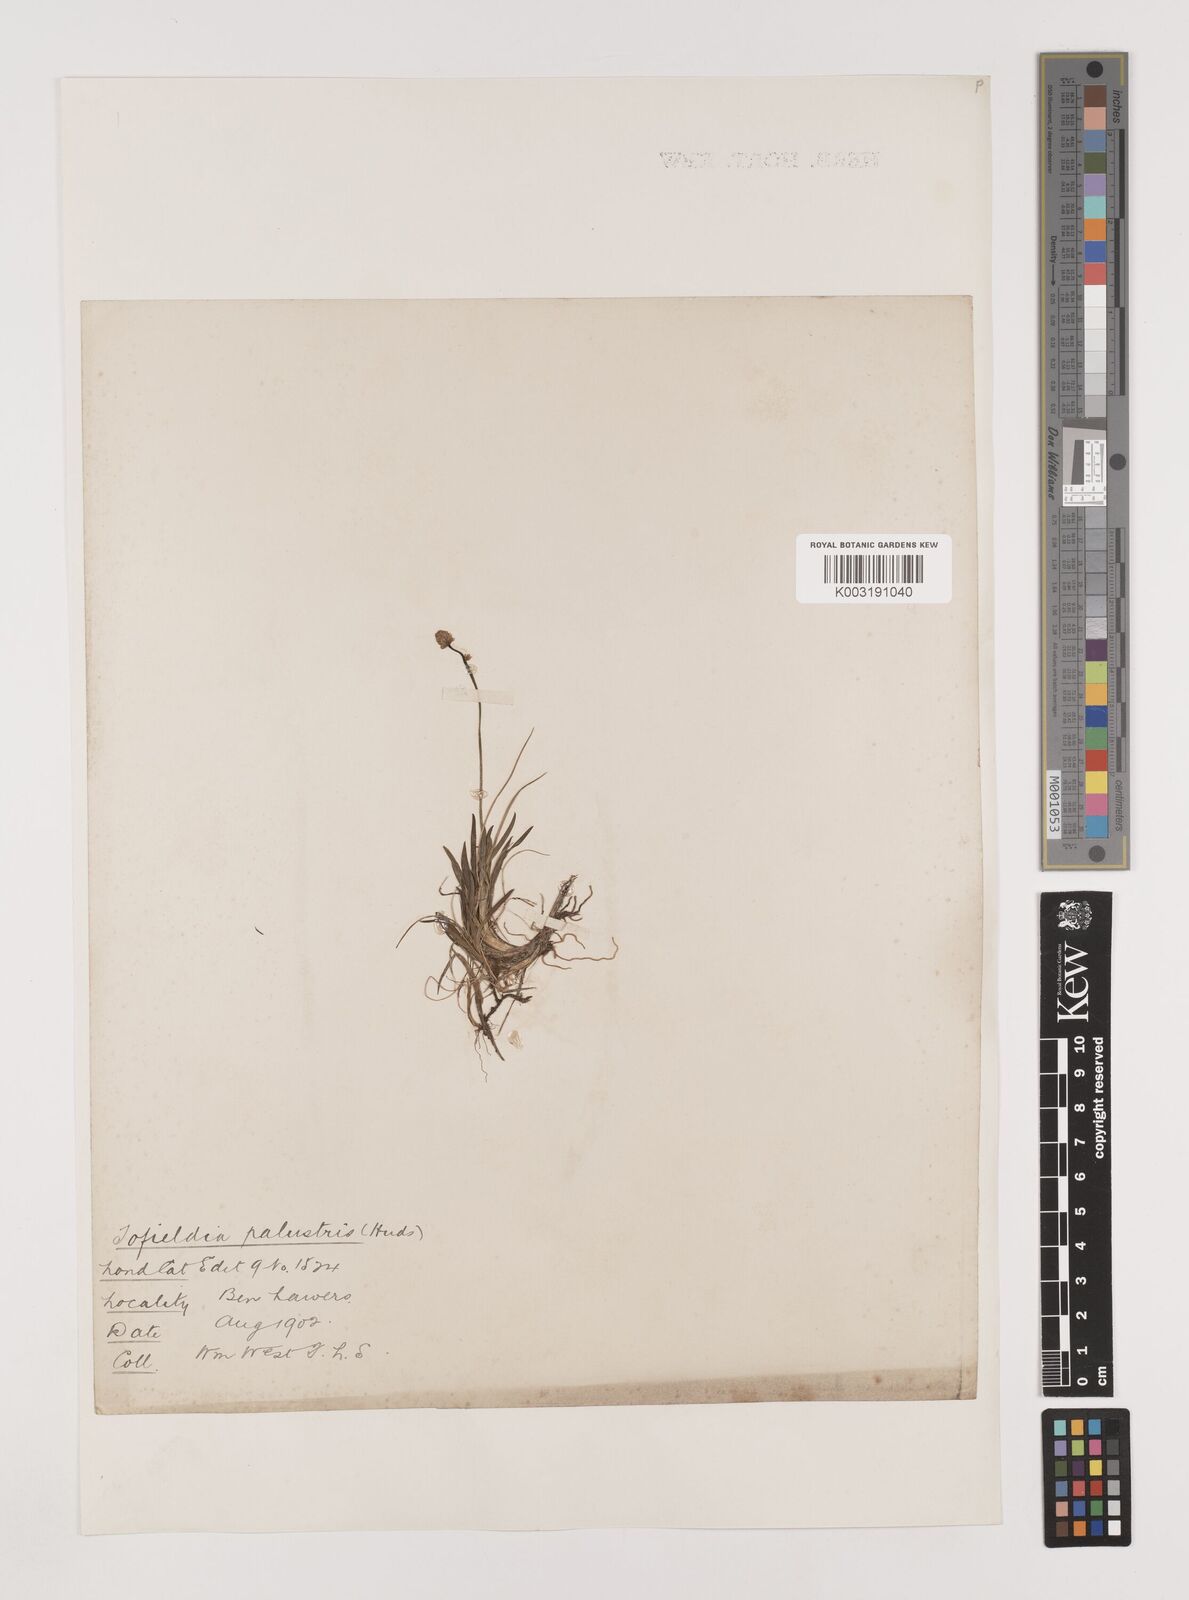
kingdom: Plantae
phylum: Tracheophyta
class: Liliopsida
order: Alismatales
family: Tofieldiaceae
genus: Tofieldia
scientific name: Tofieldia pusilla
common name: Scottish false asphodel
